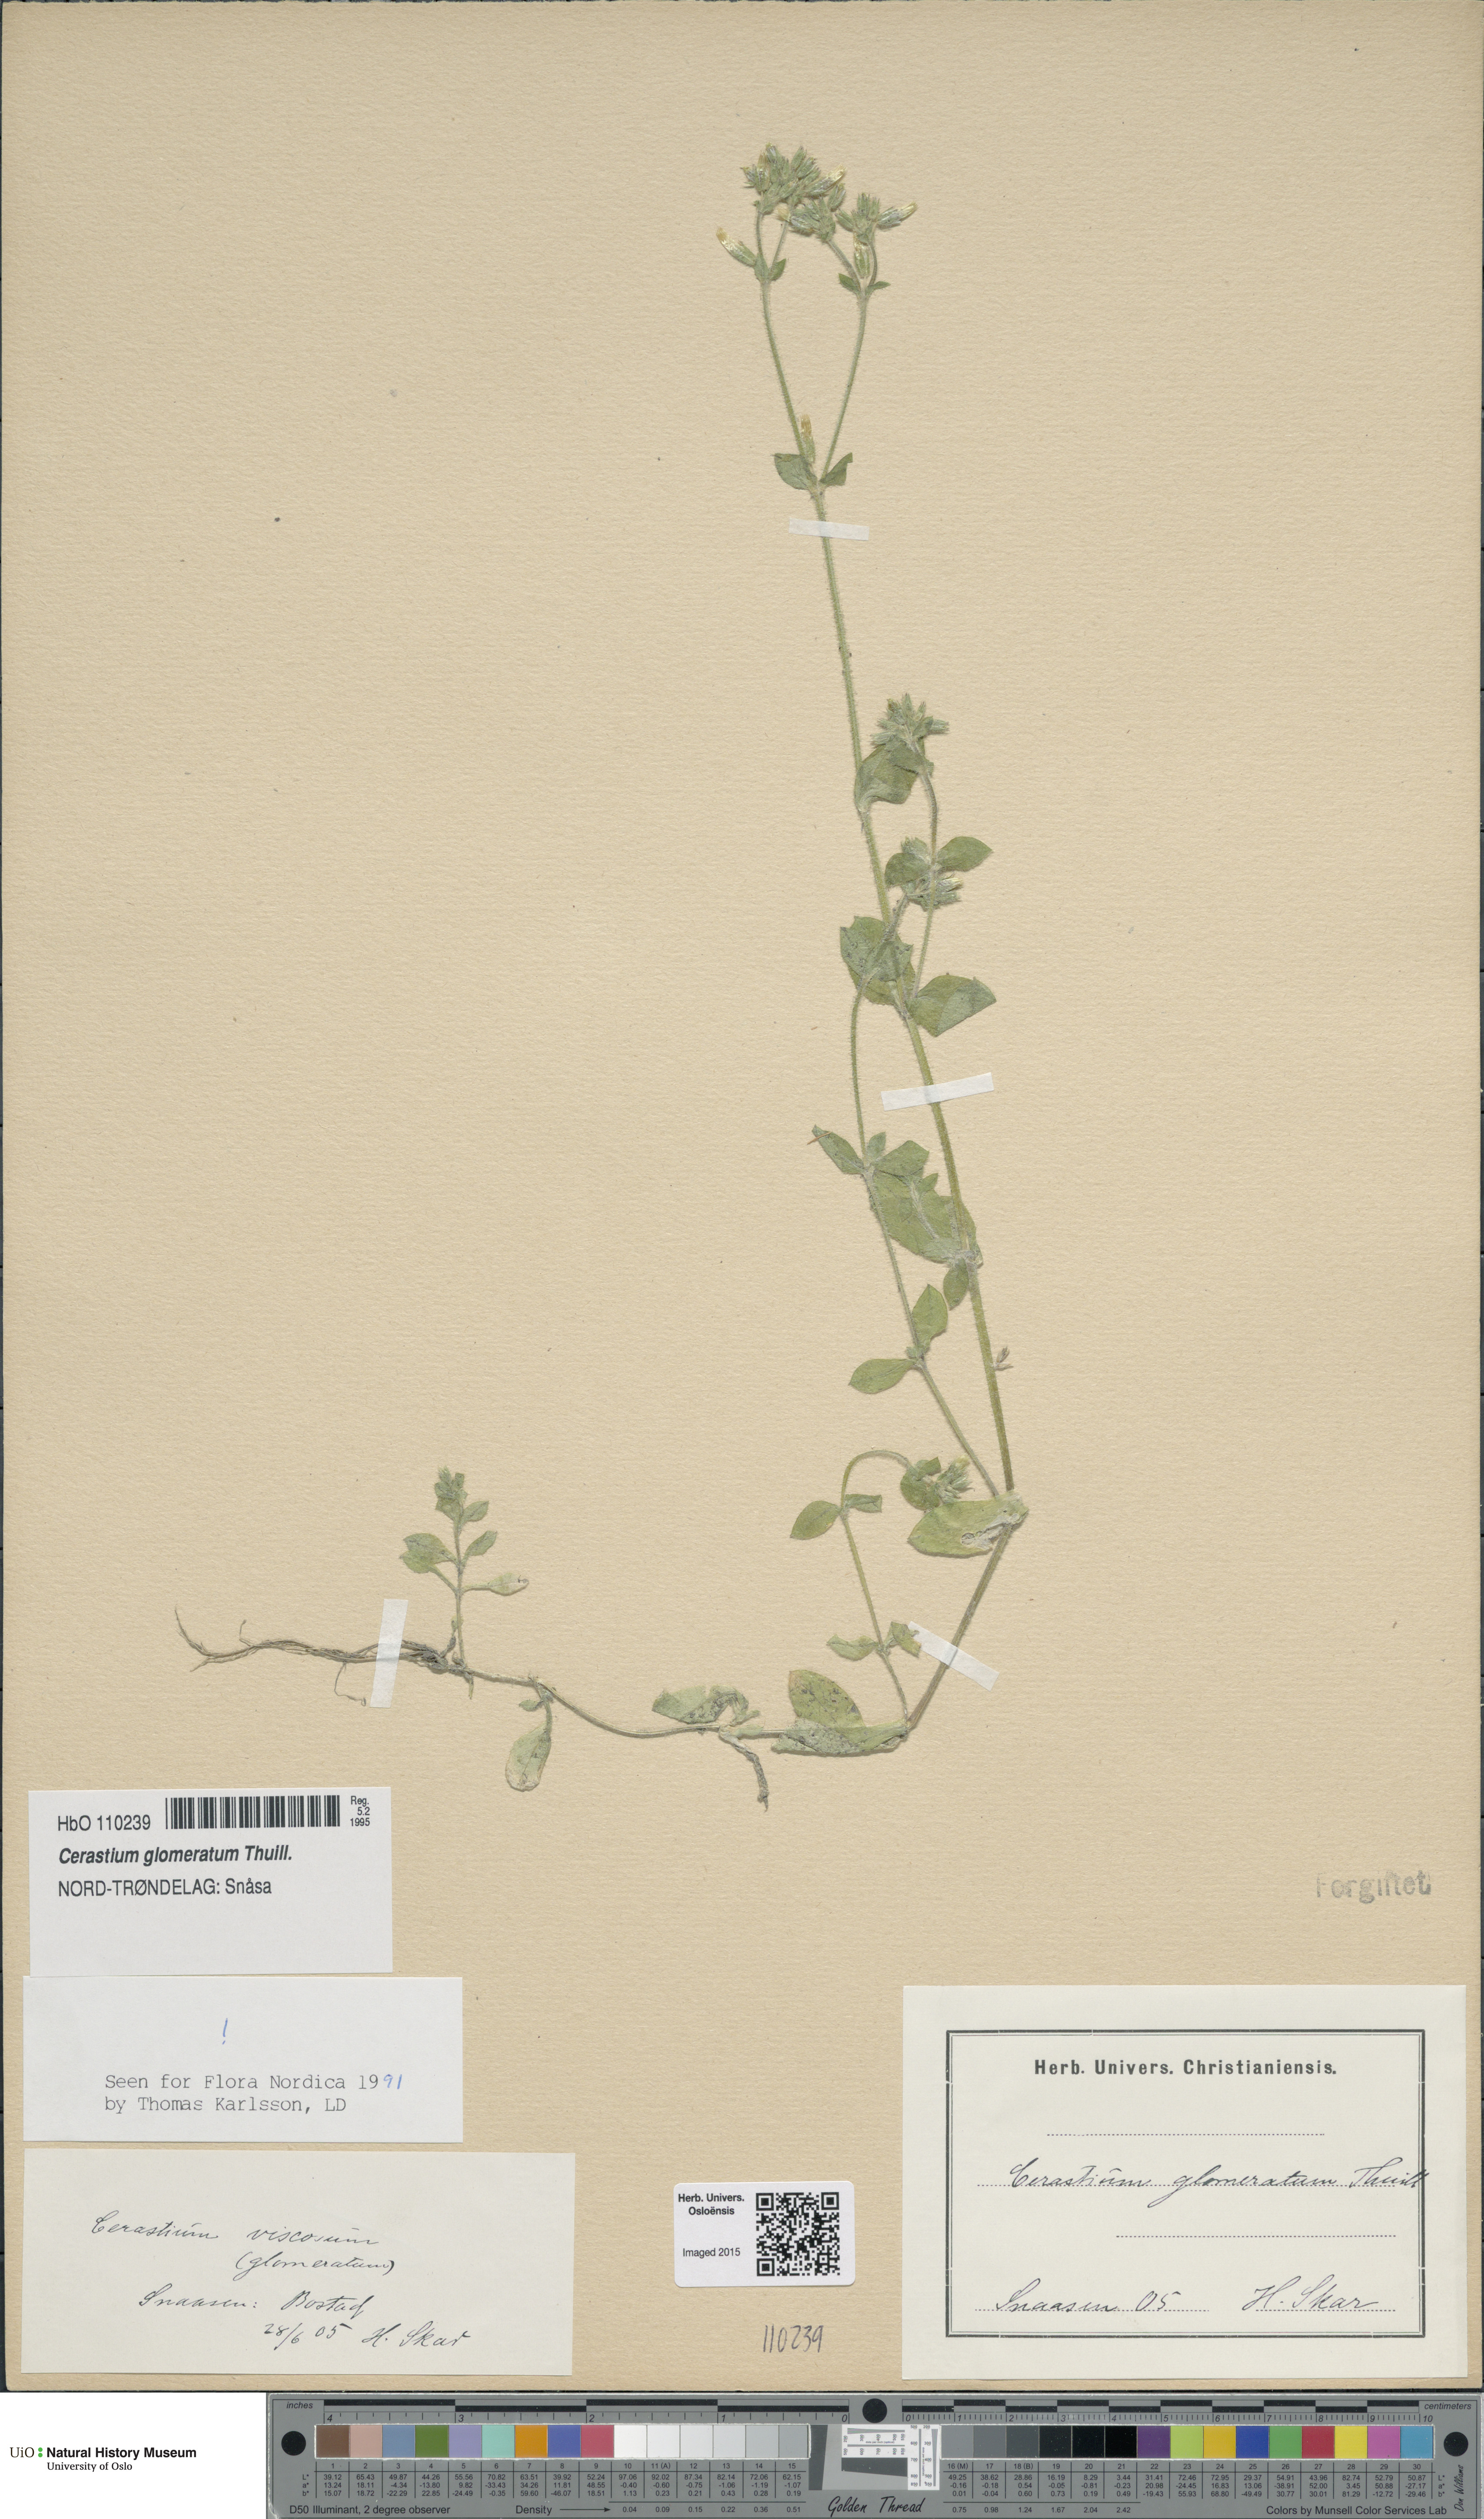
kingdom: Plantae
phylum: Tracheophyta
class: Magnoliopsida
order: Caryophyllales
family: Caryophyllaceae
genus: Cerastium
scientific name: Cerastium glomeratum
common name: Sticky chickweed
